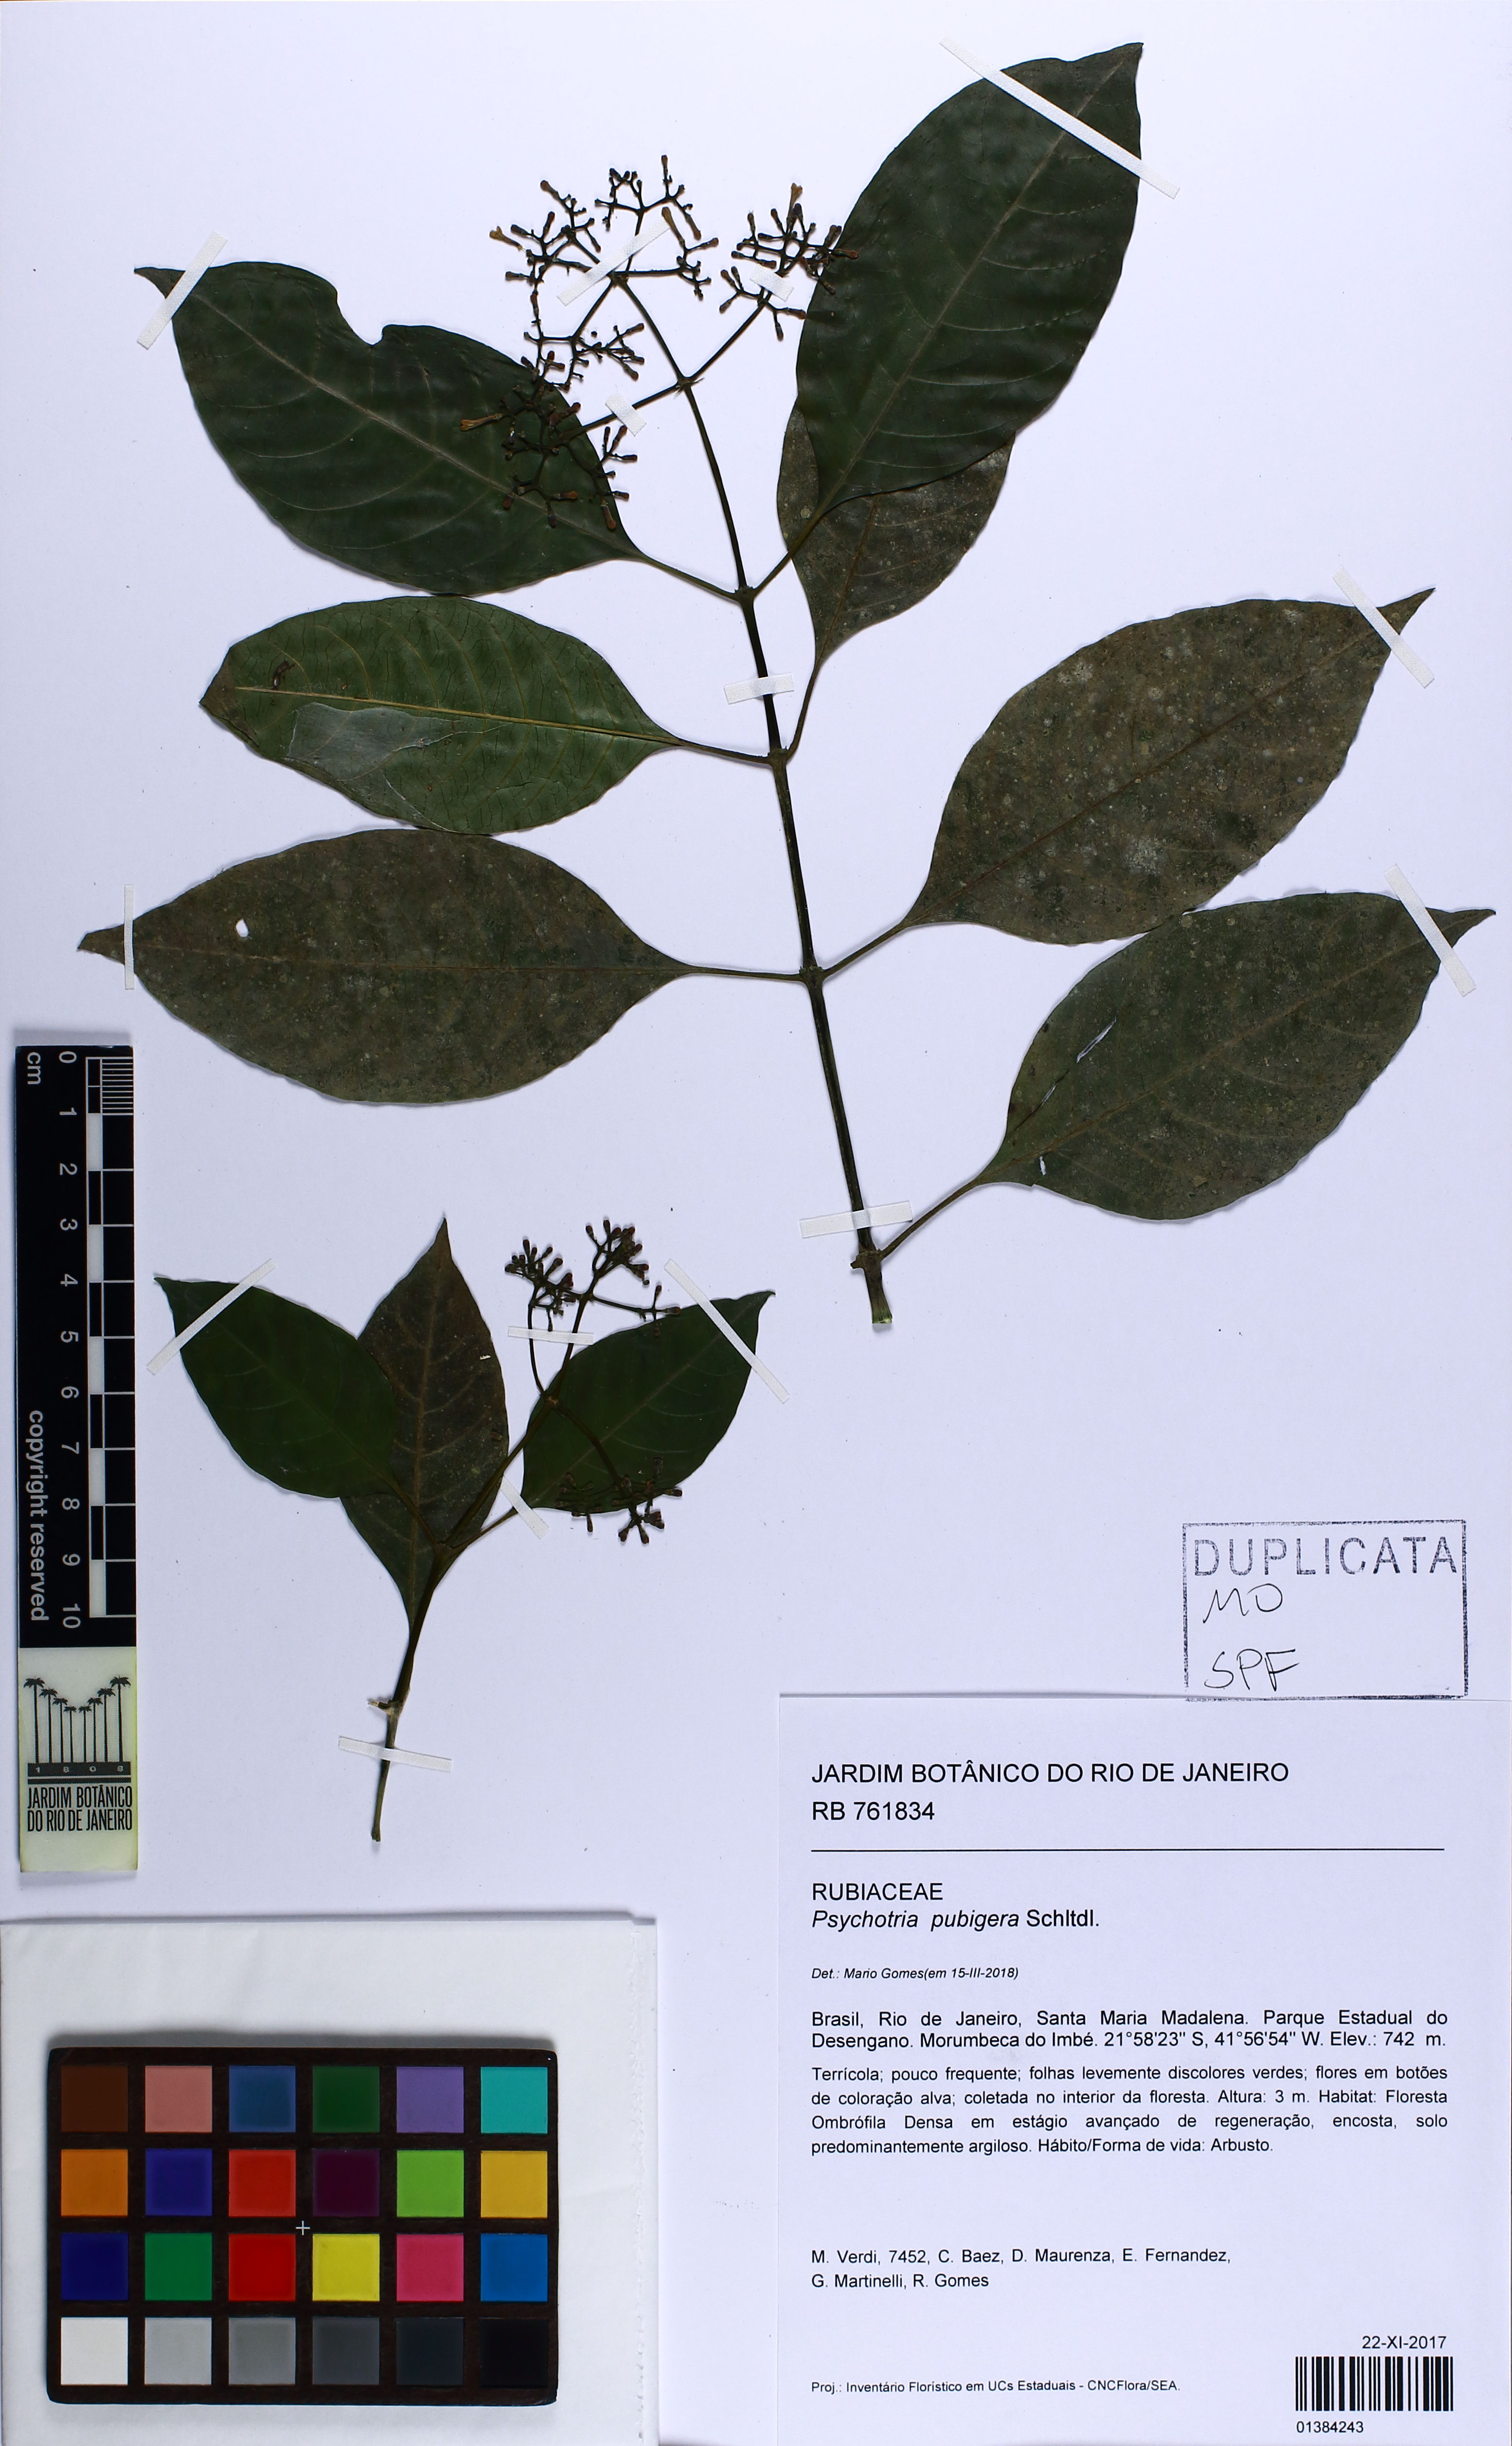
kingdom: Plantae
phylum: Tracheophyta
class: Magnoliopsida
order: Gentianales
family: Rubiaceae
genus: Psychotria
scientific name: Psychotria nemorosa
